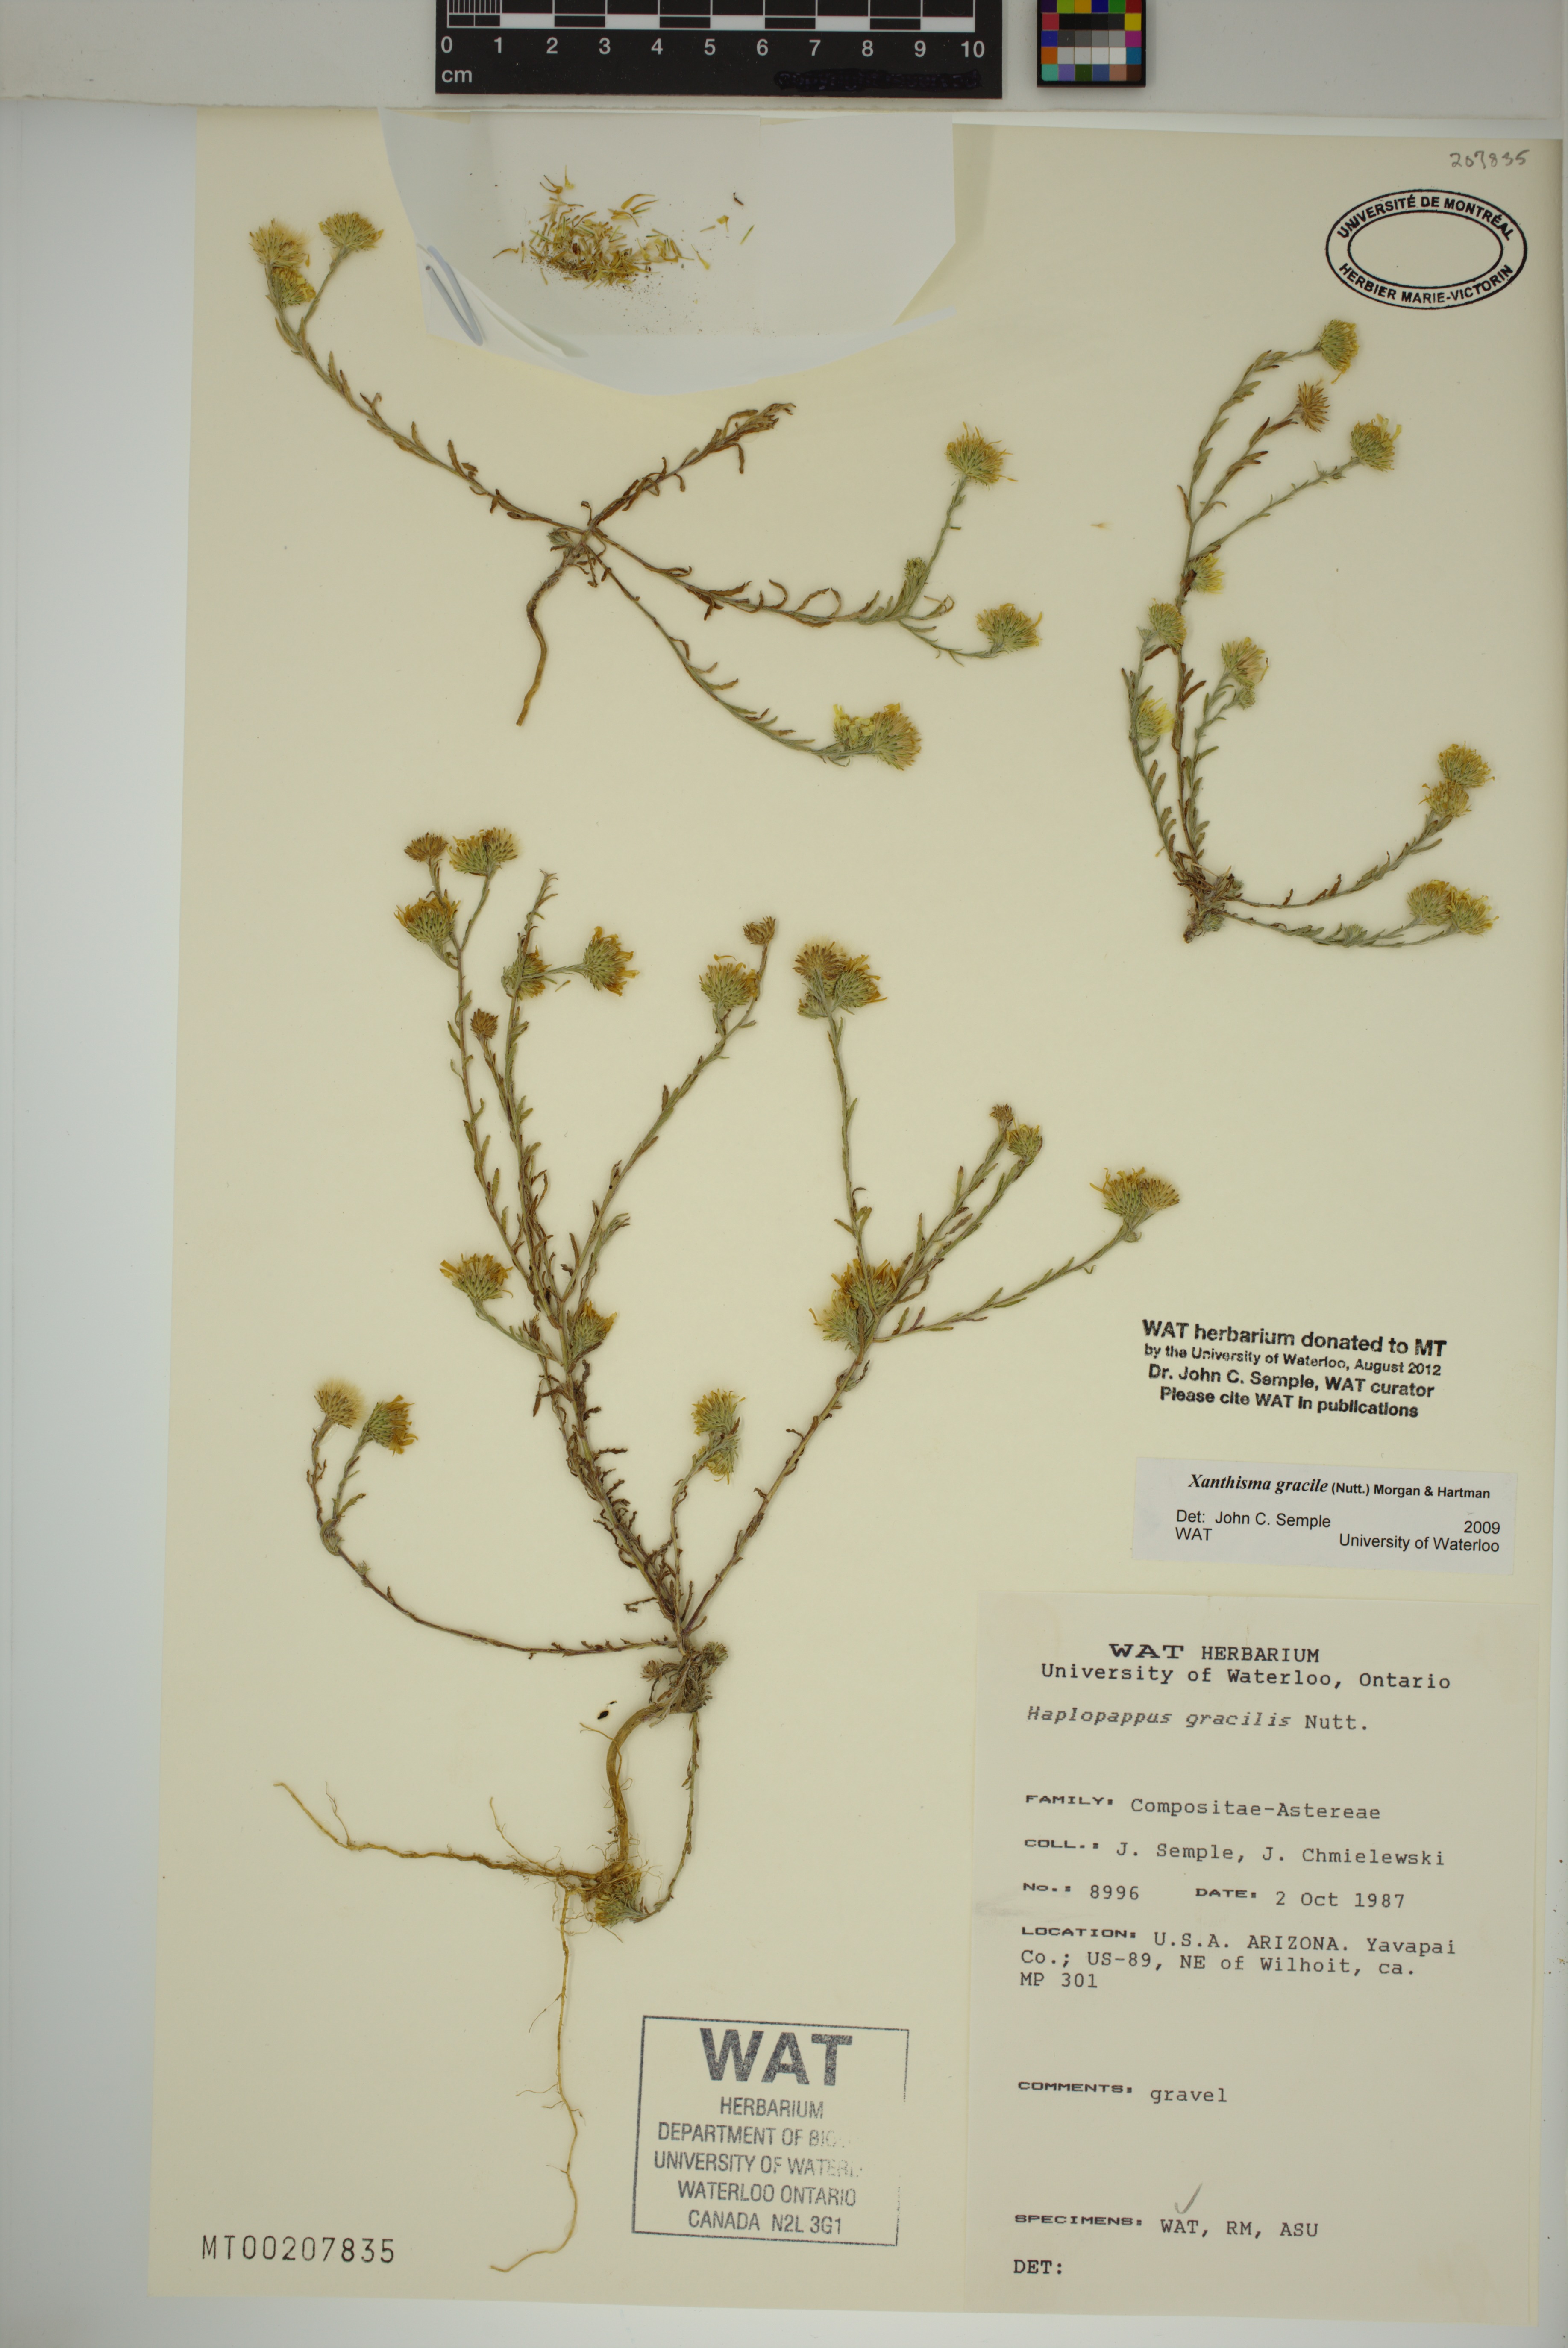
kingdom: Plantae
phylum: Tracheophyta
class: Magnoliopsida
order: Asterales
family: Asteraceae
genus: Xanthisma
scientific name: Xanthisma gracile
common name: Slender goldenweed
